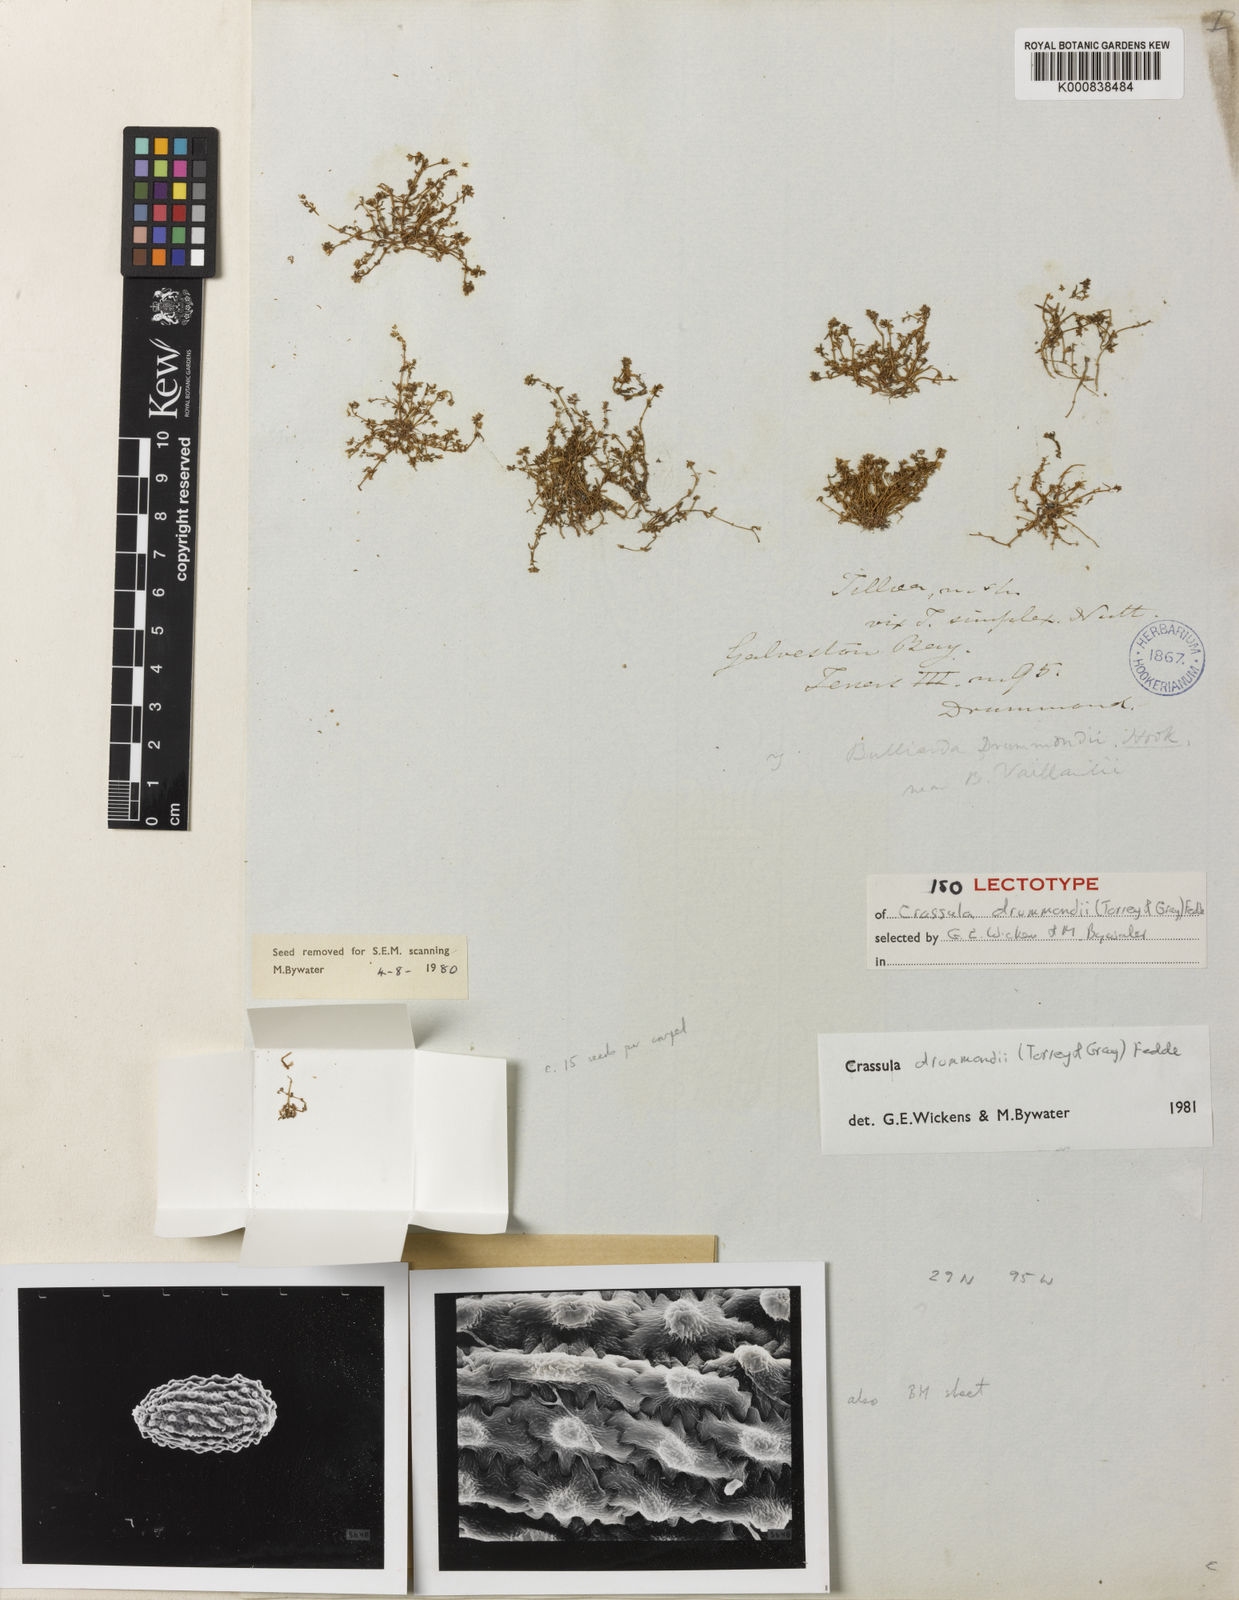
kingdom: Plantae
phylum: Tracheophyta
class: Magnoliopsida
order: Saxifragales
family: Crassulaceae
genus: Crassula
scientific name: Crassula drummondii
